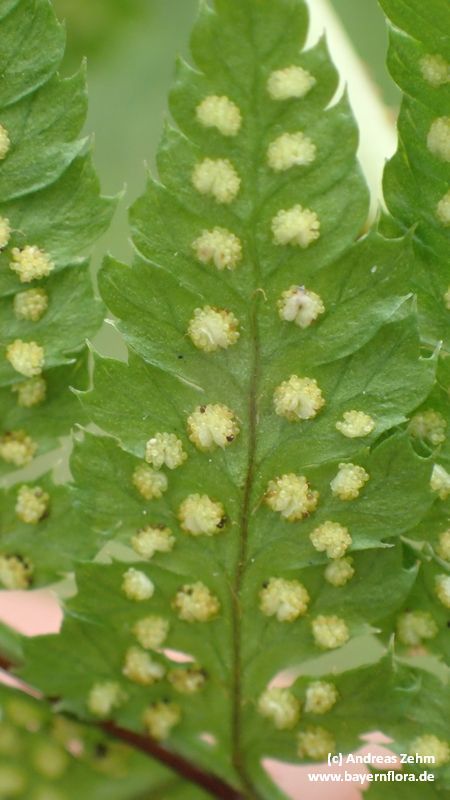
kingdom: Plantae
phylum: Tracheophyta
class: Polypodiopsida
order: Polypodiales
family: Dryopteridaceae
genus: Dryopteris
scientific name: Dryopteris
